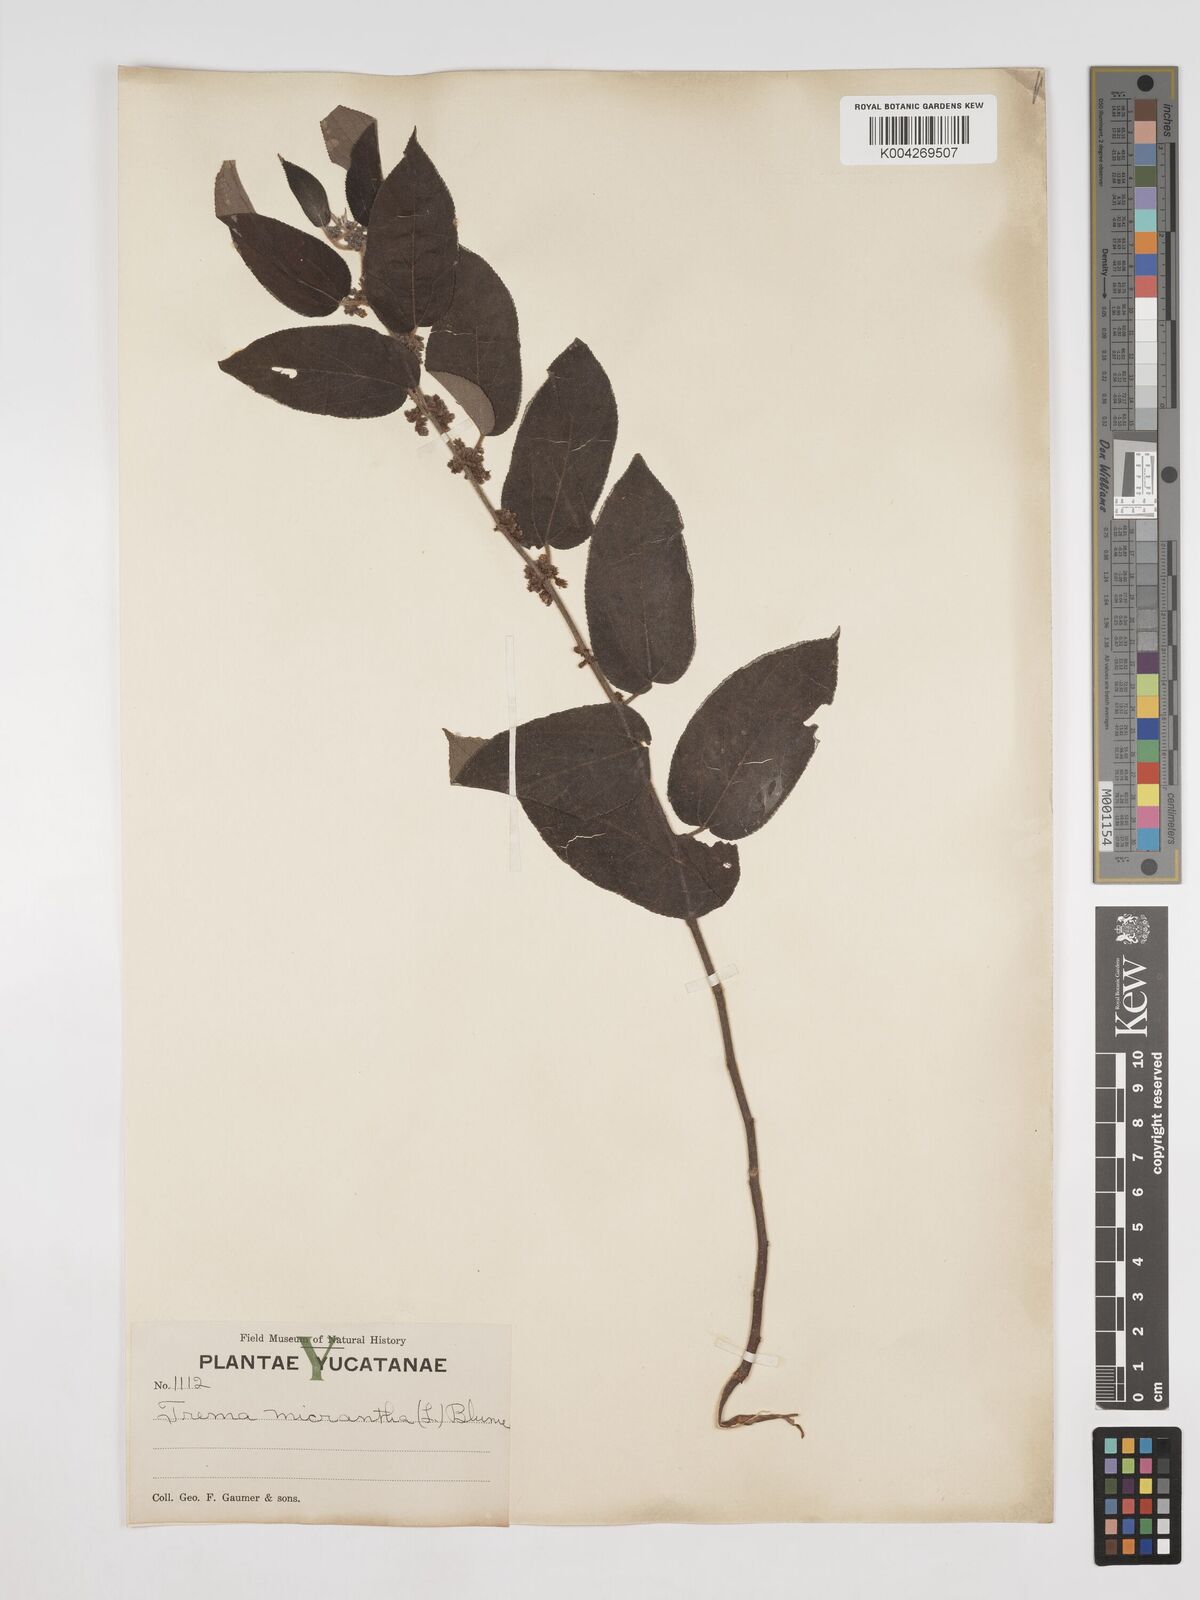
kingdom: Plantae
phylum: Tracheophyta
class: Magnoliopsida
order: Rosales
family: Cannabaceae
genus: Trema
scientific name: Trema micranthum
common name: Jamaican nettletree
